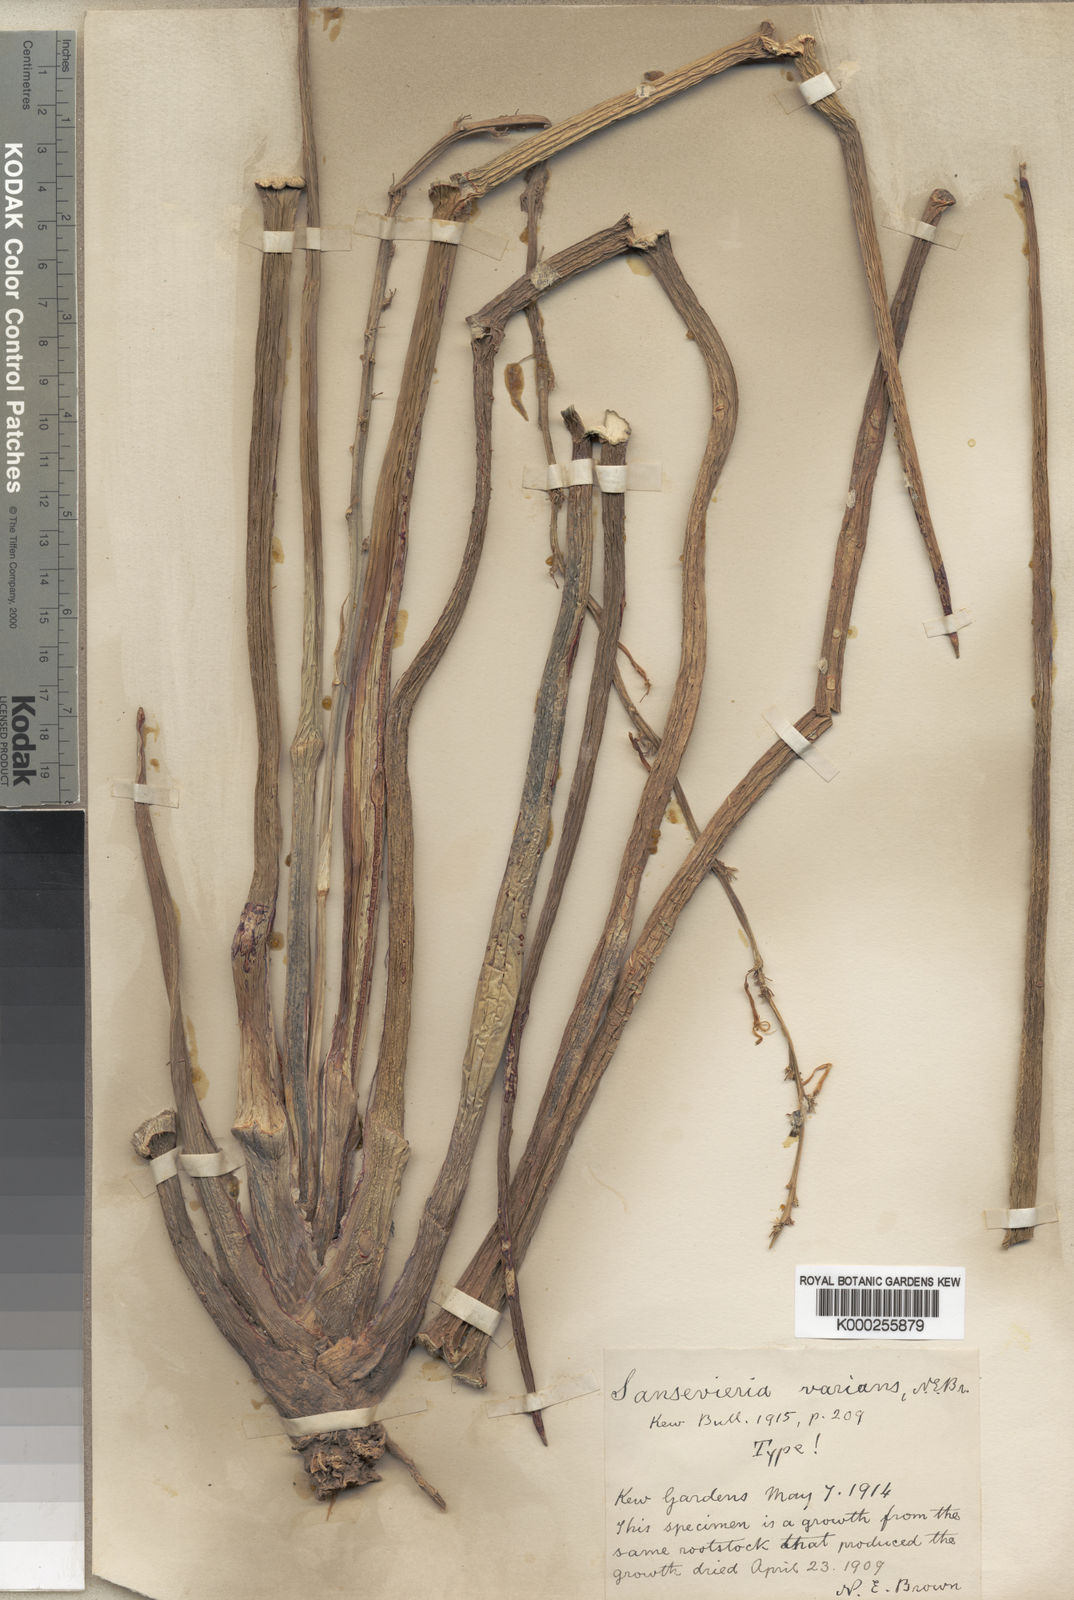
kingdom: Plantae
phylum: Tracheophyta
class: Liliopsida
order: Asparagales
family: Asparagaceae
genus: Dracaena
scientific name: Dracaena varians
